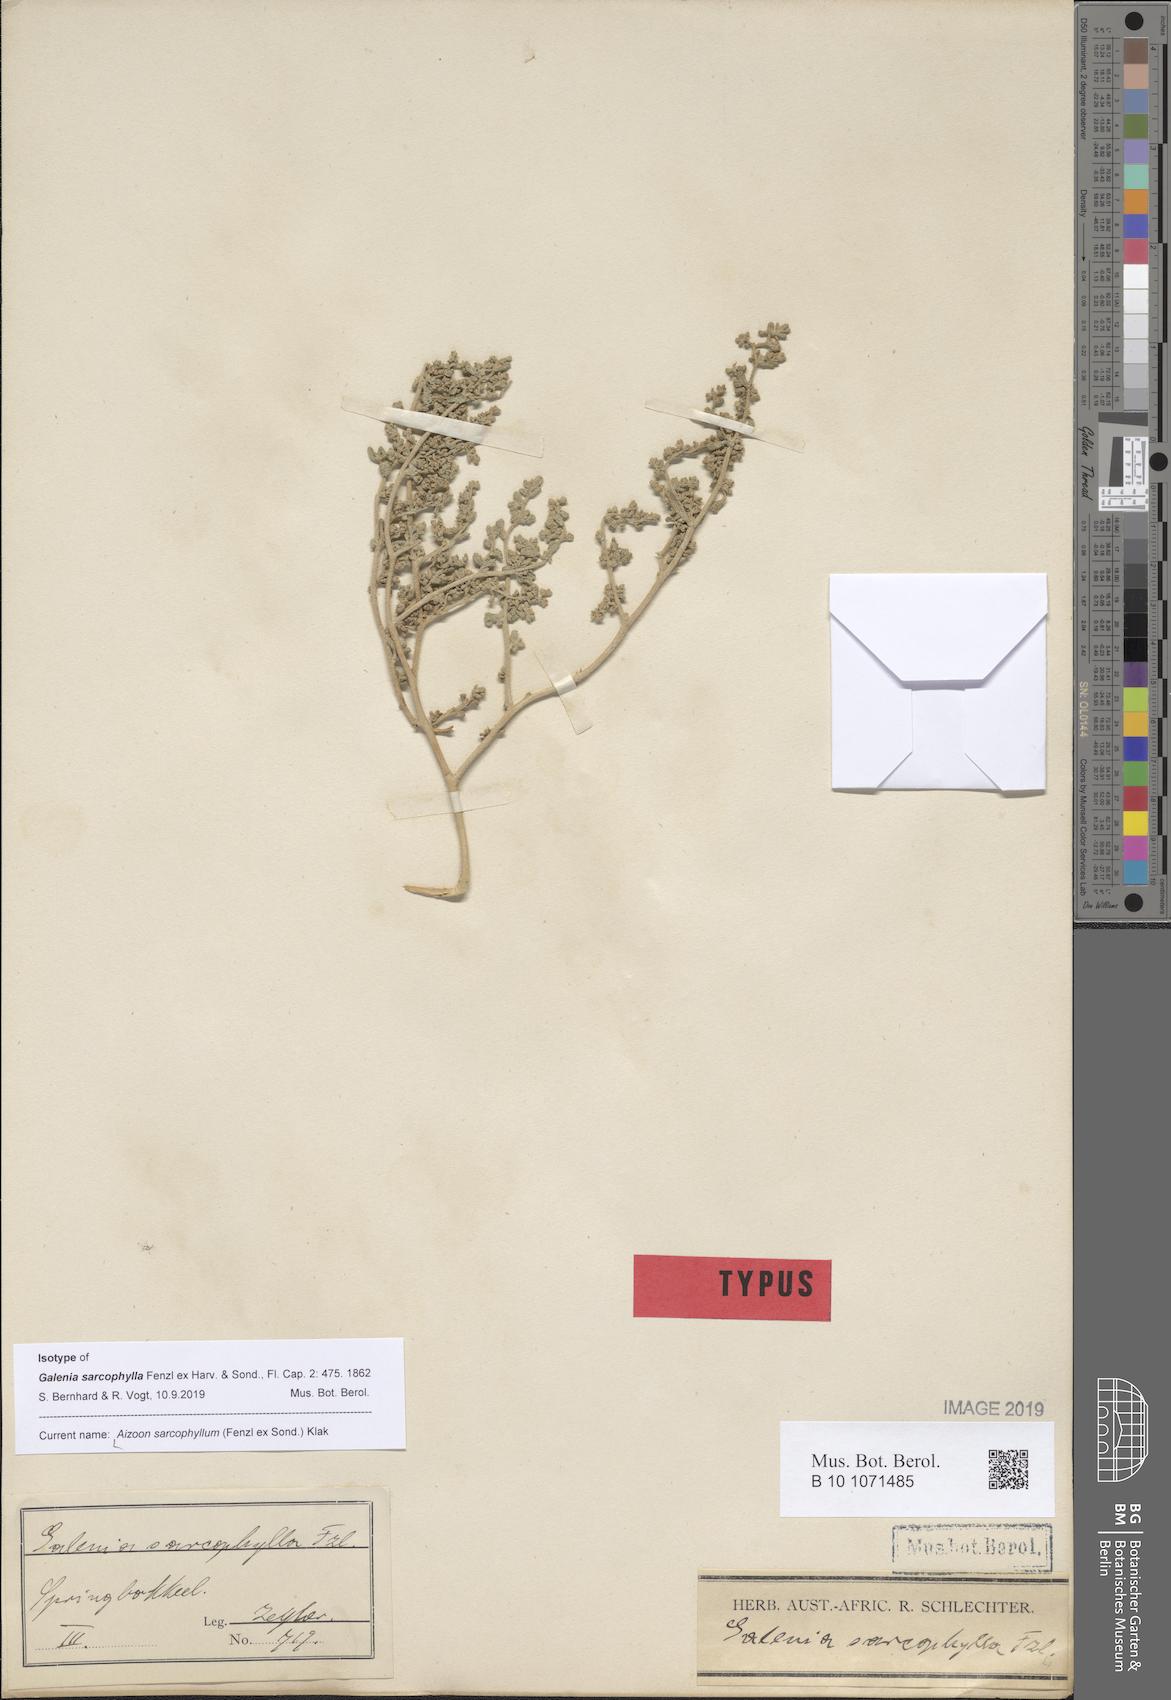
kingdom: Plantae
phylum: Tracheophyta
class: Magnoliopsida
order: Caryophyllales
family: Aizoaceae
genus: Aizoon
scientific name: Aizoon sarcophyllum
